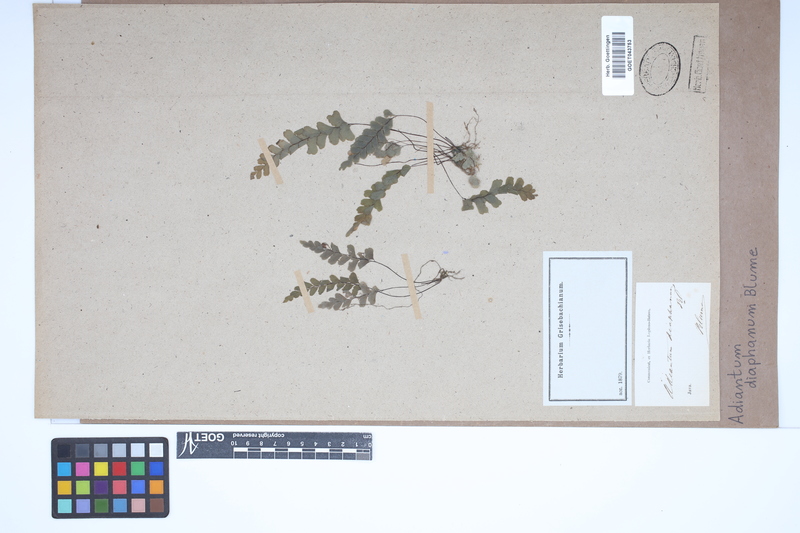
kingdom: Plantae
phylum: Tracheophyta
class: Polypodiopsida
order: Polypodiales
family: Pteridaceae
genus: Adiantum
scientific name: Adiantum diaphanum
